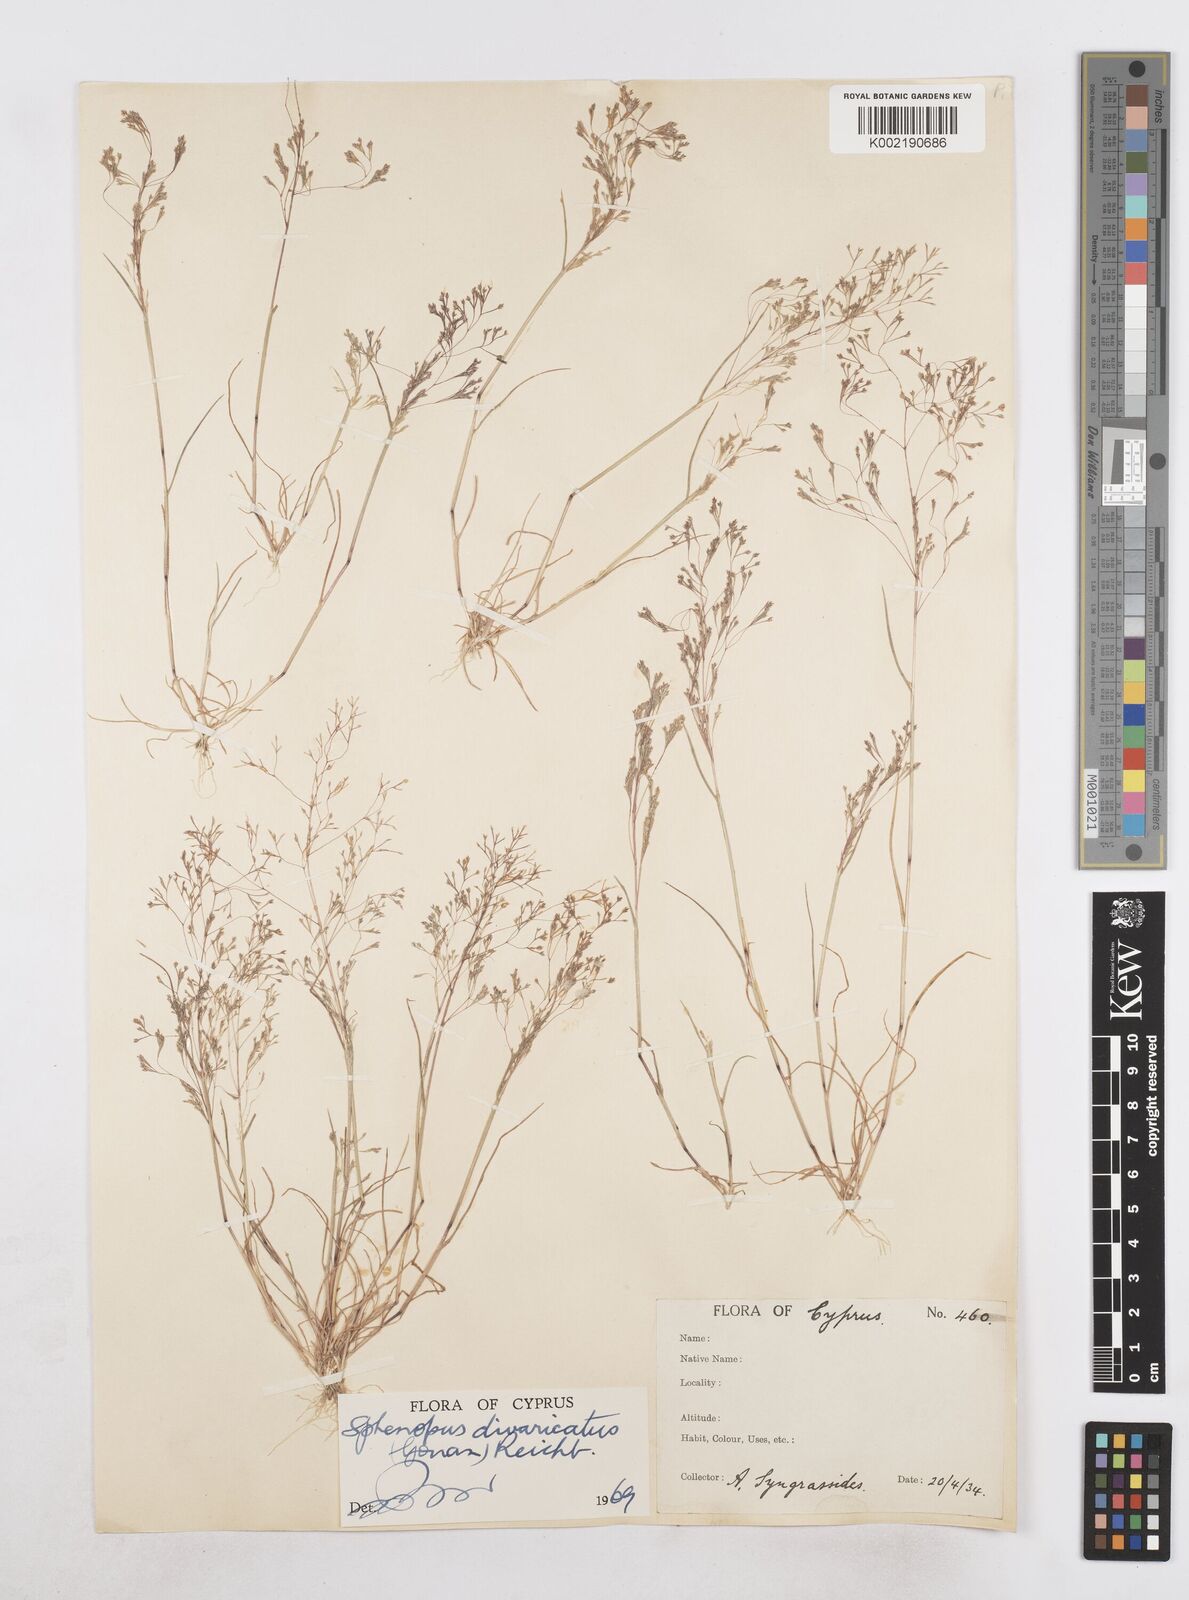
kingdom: Plantae
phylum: Tracheophyta
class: Liliopsida
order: Poales
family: Poaceae
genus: Sphenopus
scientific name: Sphenopus divaricatus
